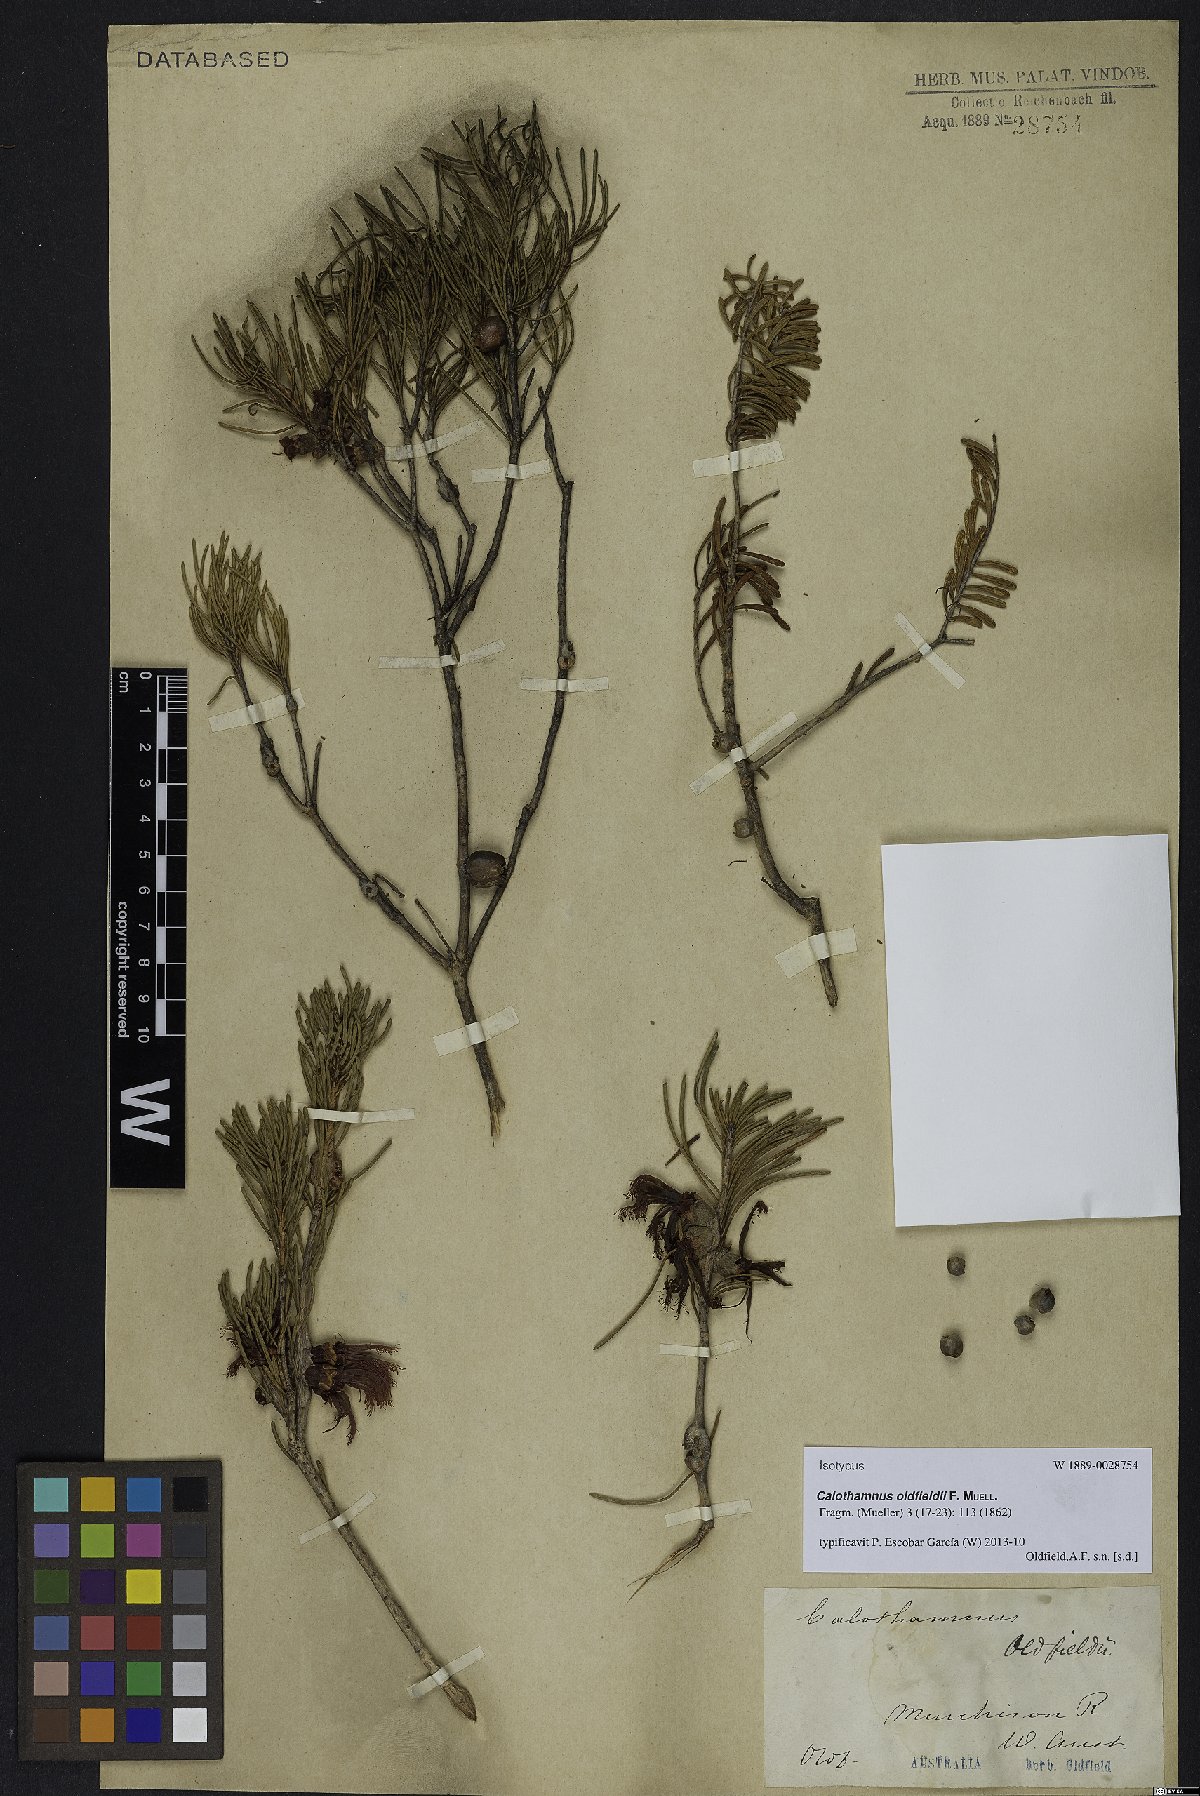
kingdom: Plantae
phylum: Tracheophyta
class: Magnoliopsida
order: Myrtales
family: Myrtaceae
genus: Melaleuca
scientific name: Melaleuca augusti-oldfieldii
